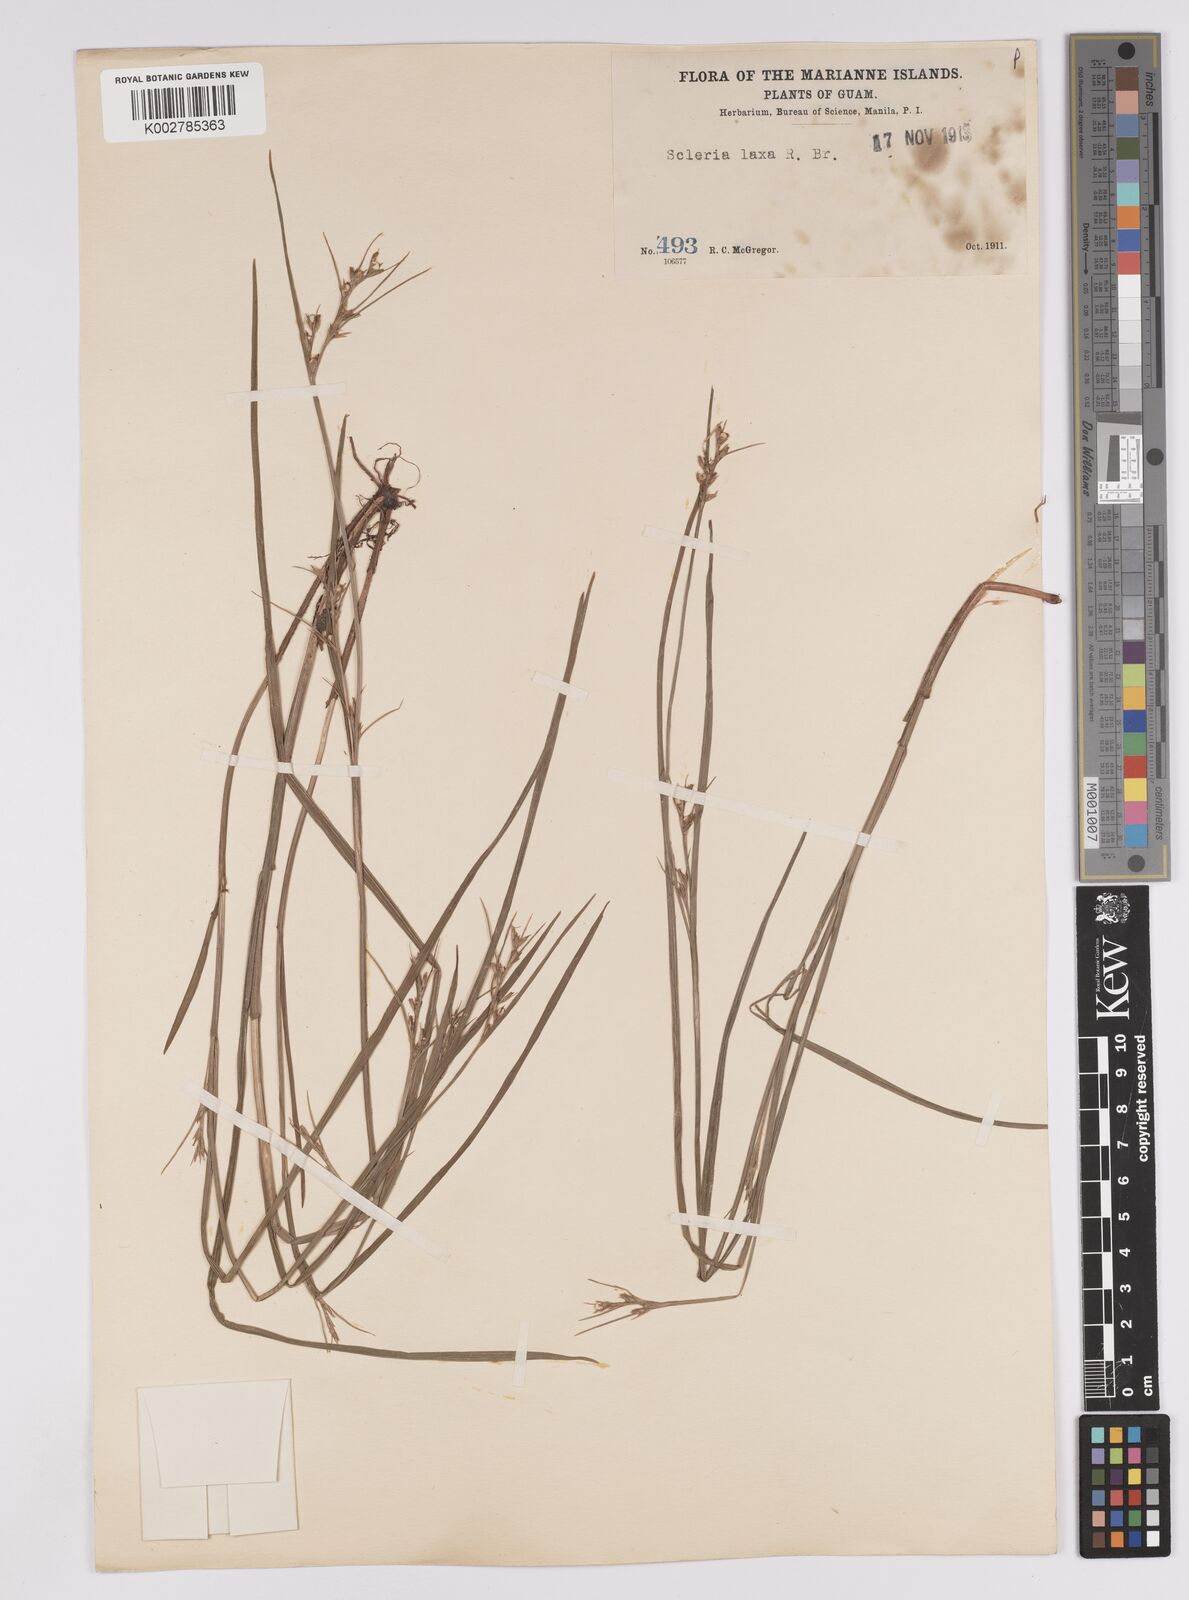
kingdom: Plantae
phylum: Tracheophyta
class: Liliopsida
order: Poales
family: Cyperaceae
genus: Scleria
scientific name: Scleria laxa
